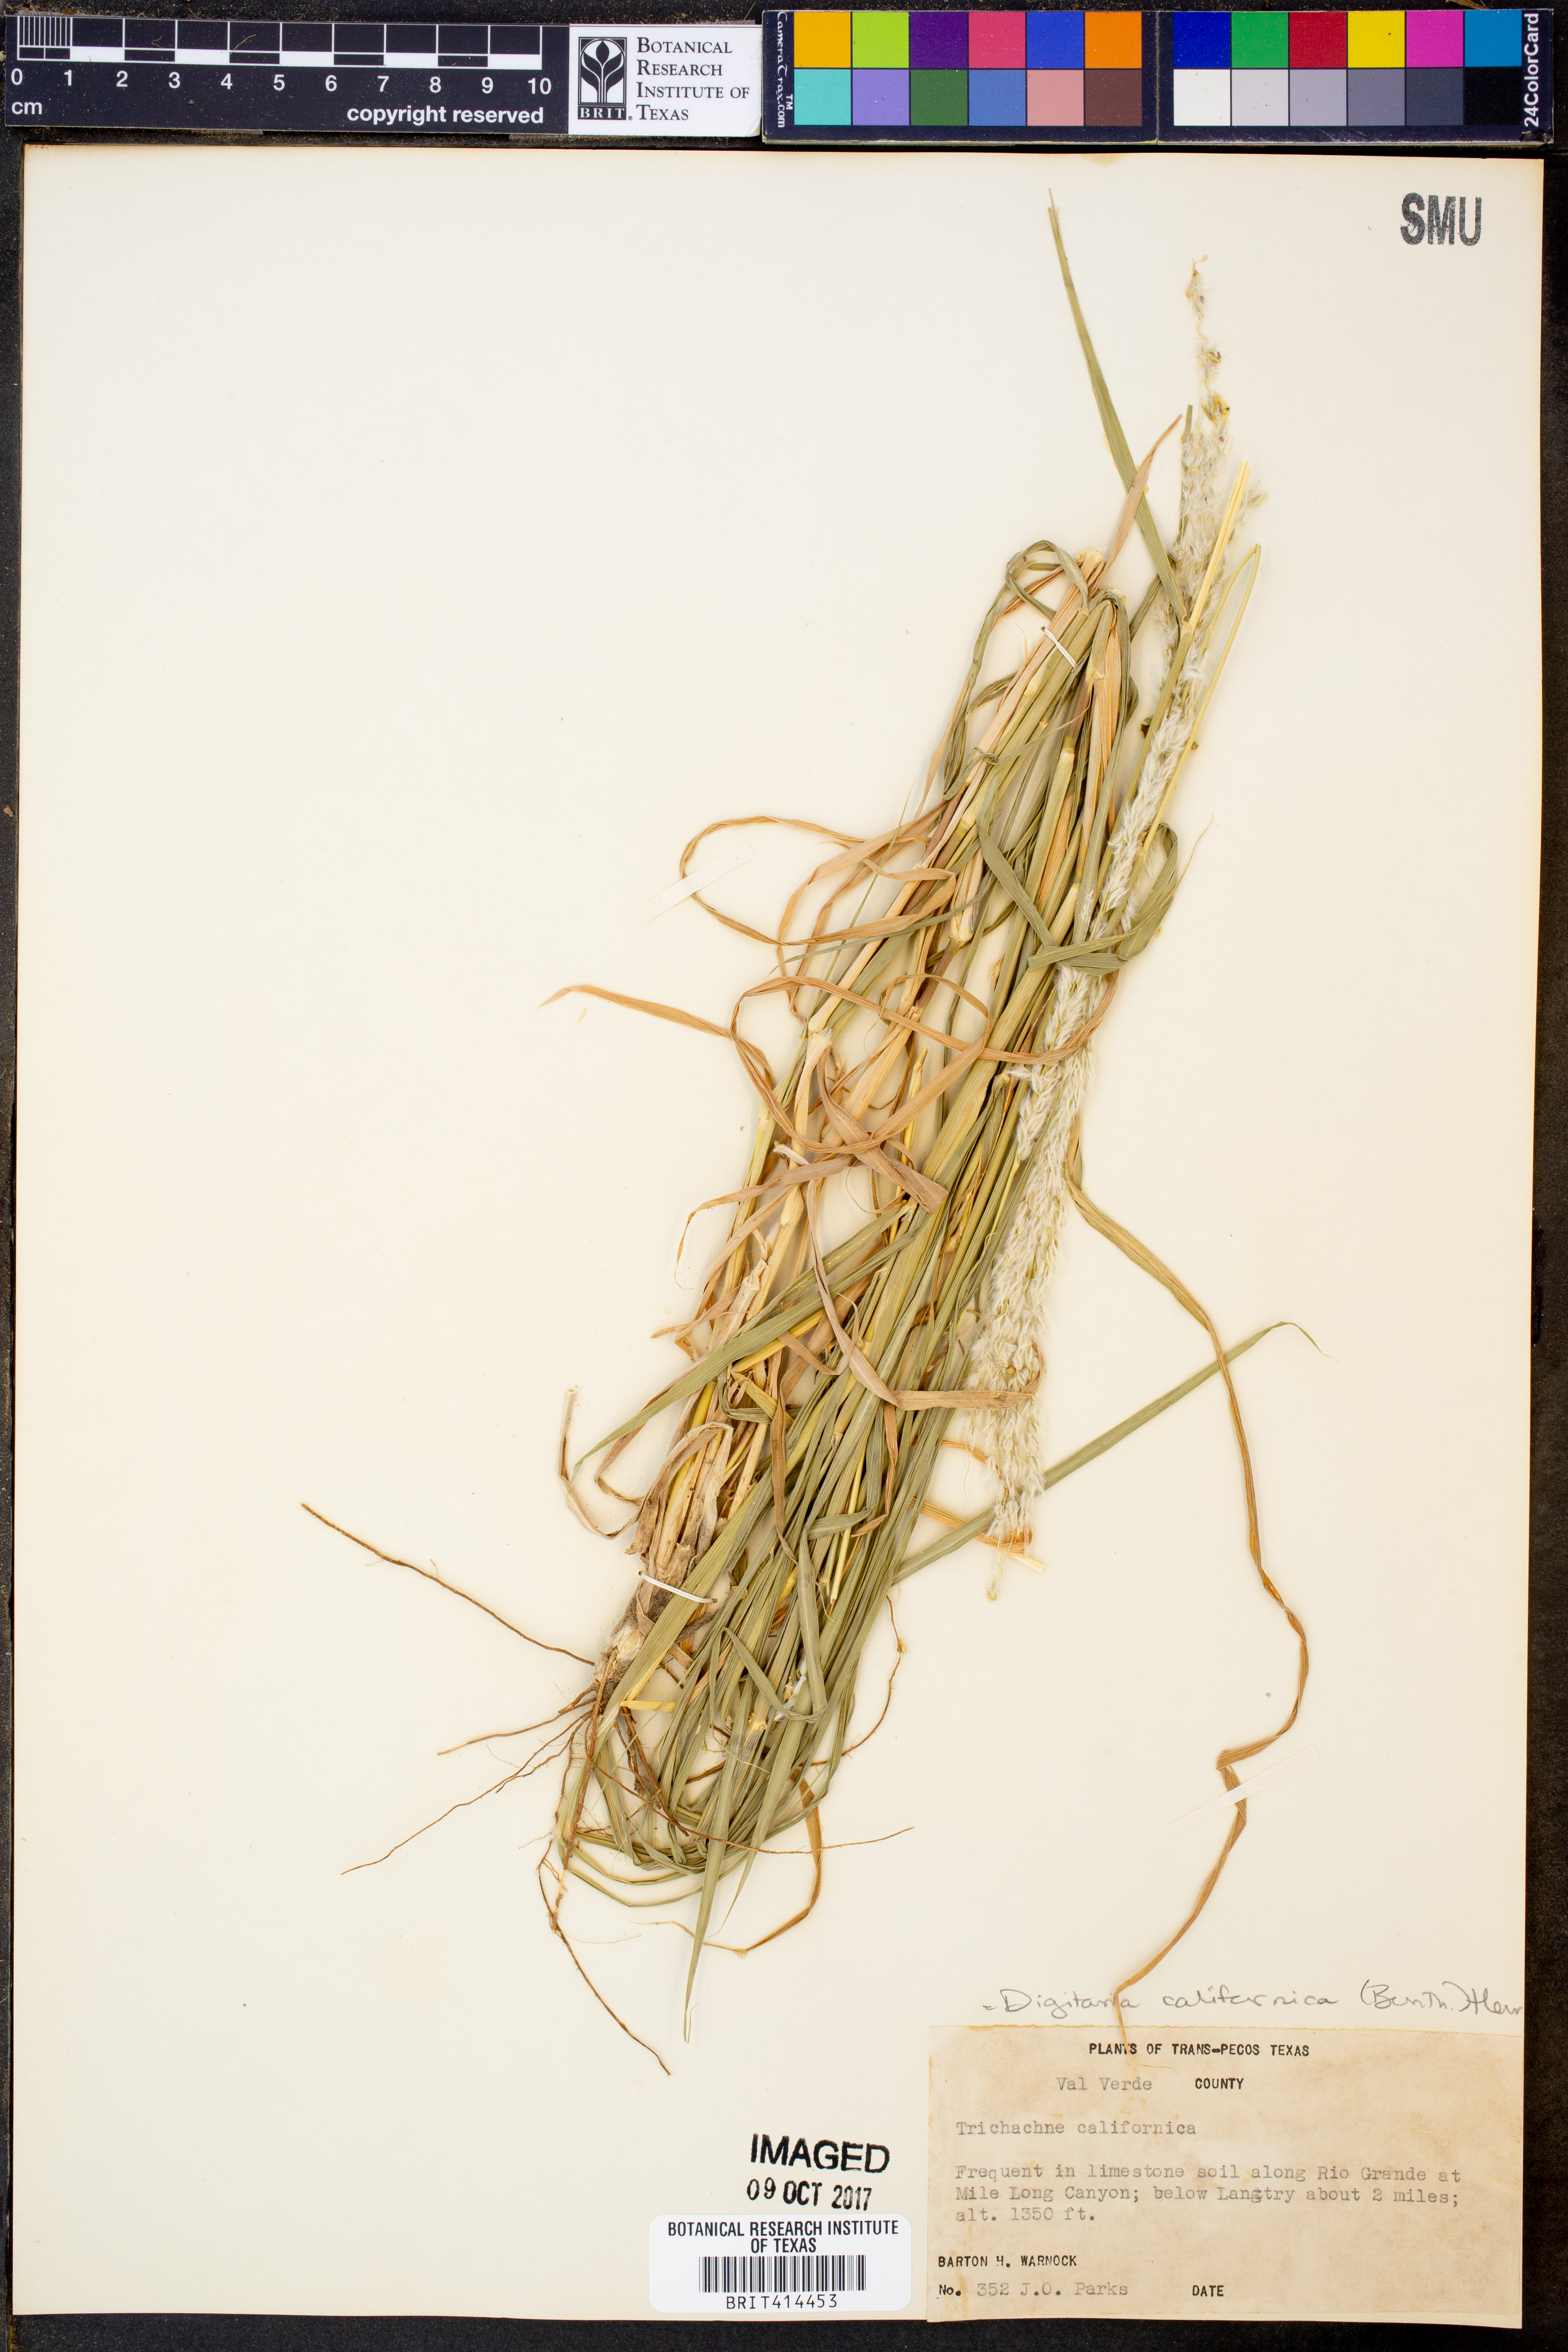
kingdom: Plantae
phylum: Tracheophyta
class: Liliopsida
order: Poales
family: Poaceae
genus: Digitaria
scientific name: Digitaria californica
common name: Arizona cottontop
